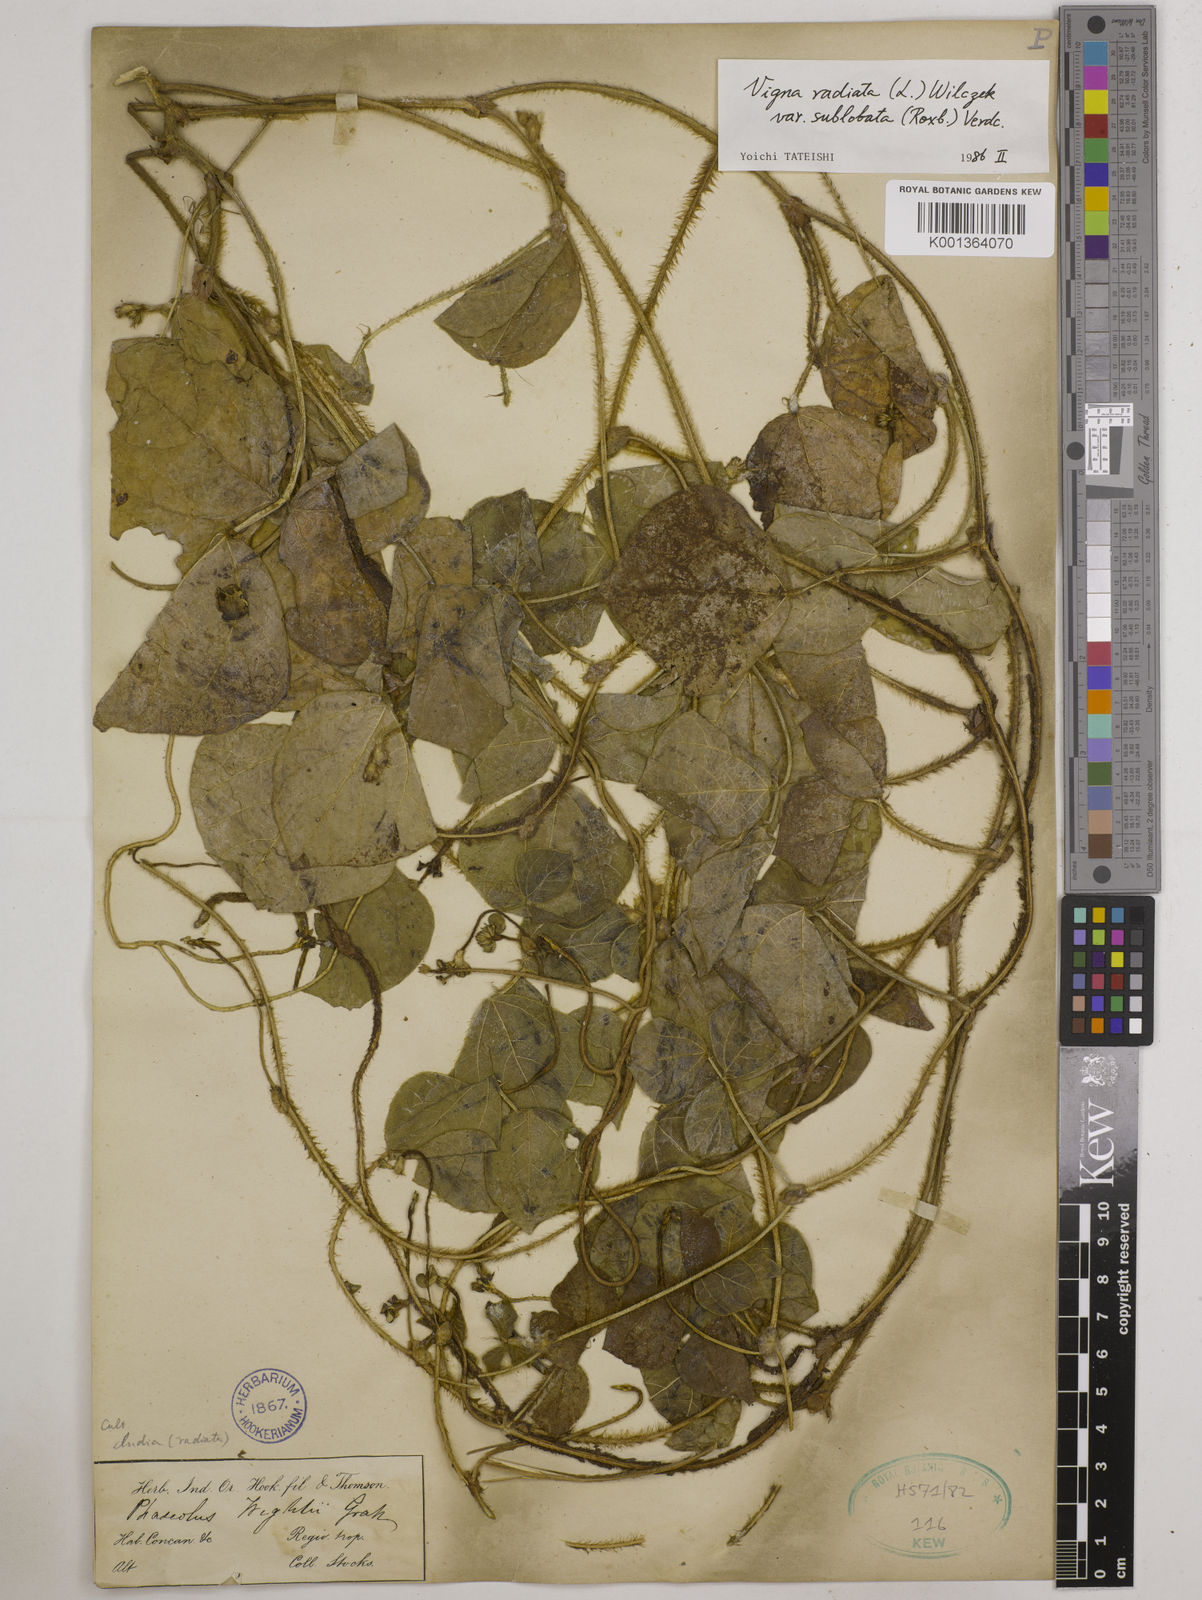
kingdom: Plantae
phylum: Tracheophyta
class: Magnoliopsida
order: Fabales
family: Fabaceae
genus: Vigna
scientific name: Vigna radiata
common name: Mung-bean
